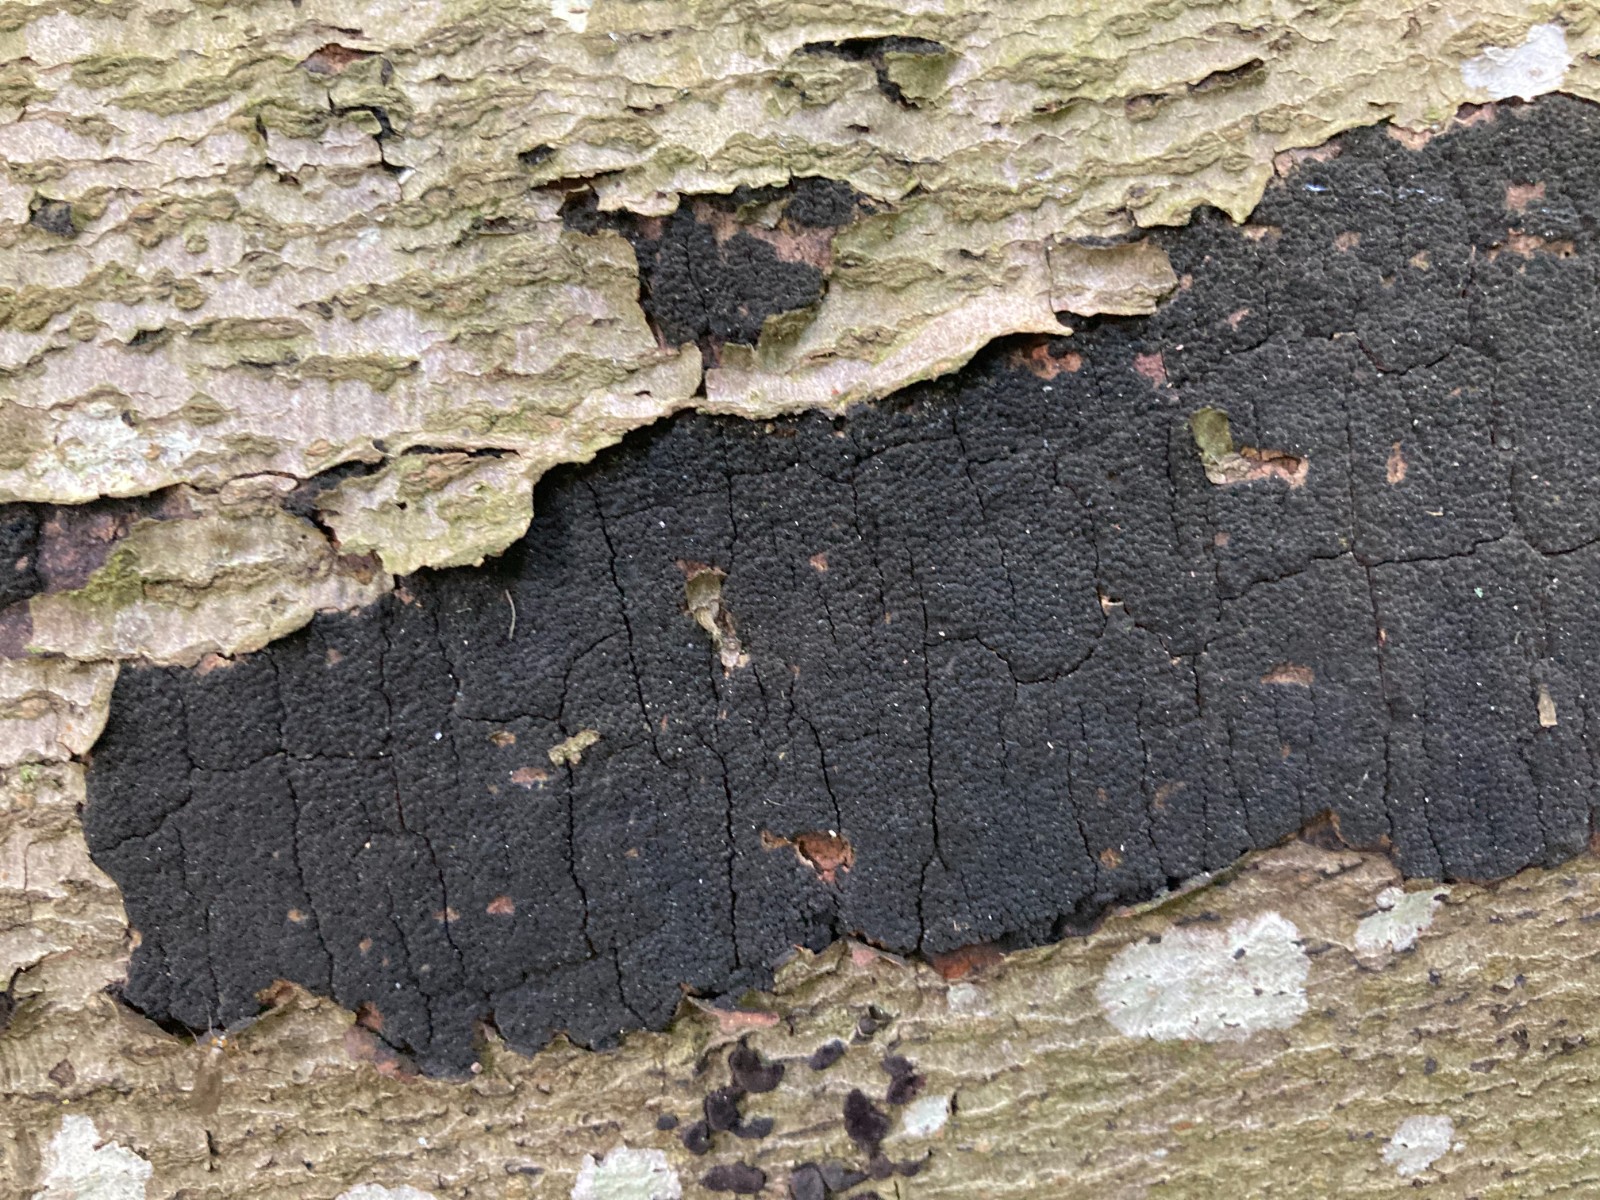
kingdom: Fungi
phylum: Ascomycota
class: Sordariomycetes
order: Xylariales
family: Diatrypaceae
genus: Eutypa
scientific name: Eutypa spinosa
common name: grov kulskorpe
